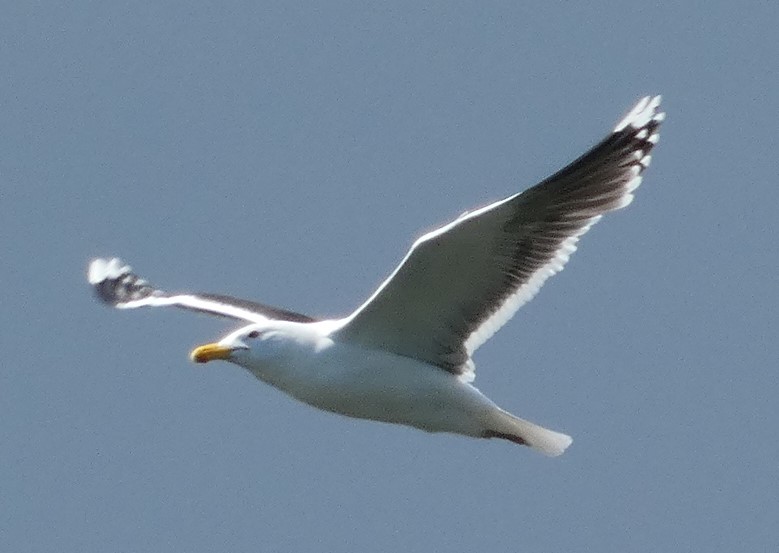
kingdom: Animalia
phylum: Chordata
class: Aves
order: Charadriiformes
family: Laridae
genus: Larus
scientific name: Larus marinus
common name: Svartbag
